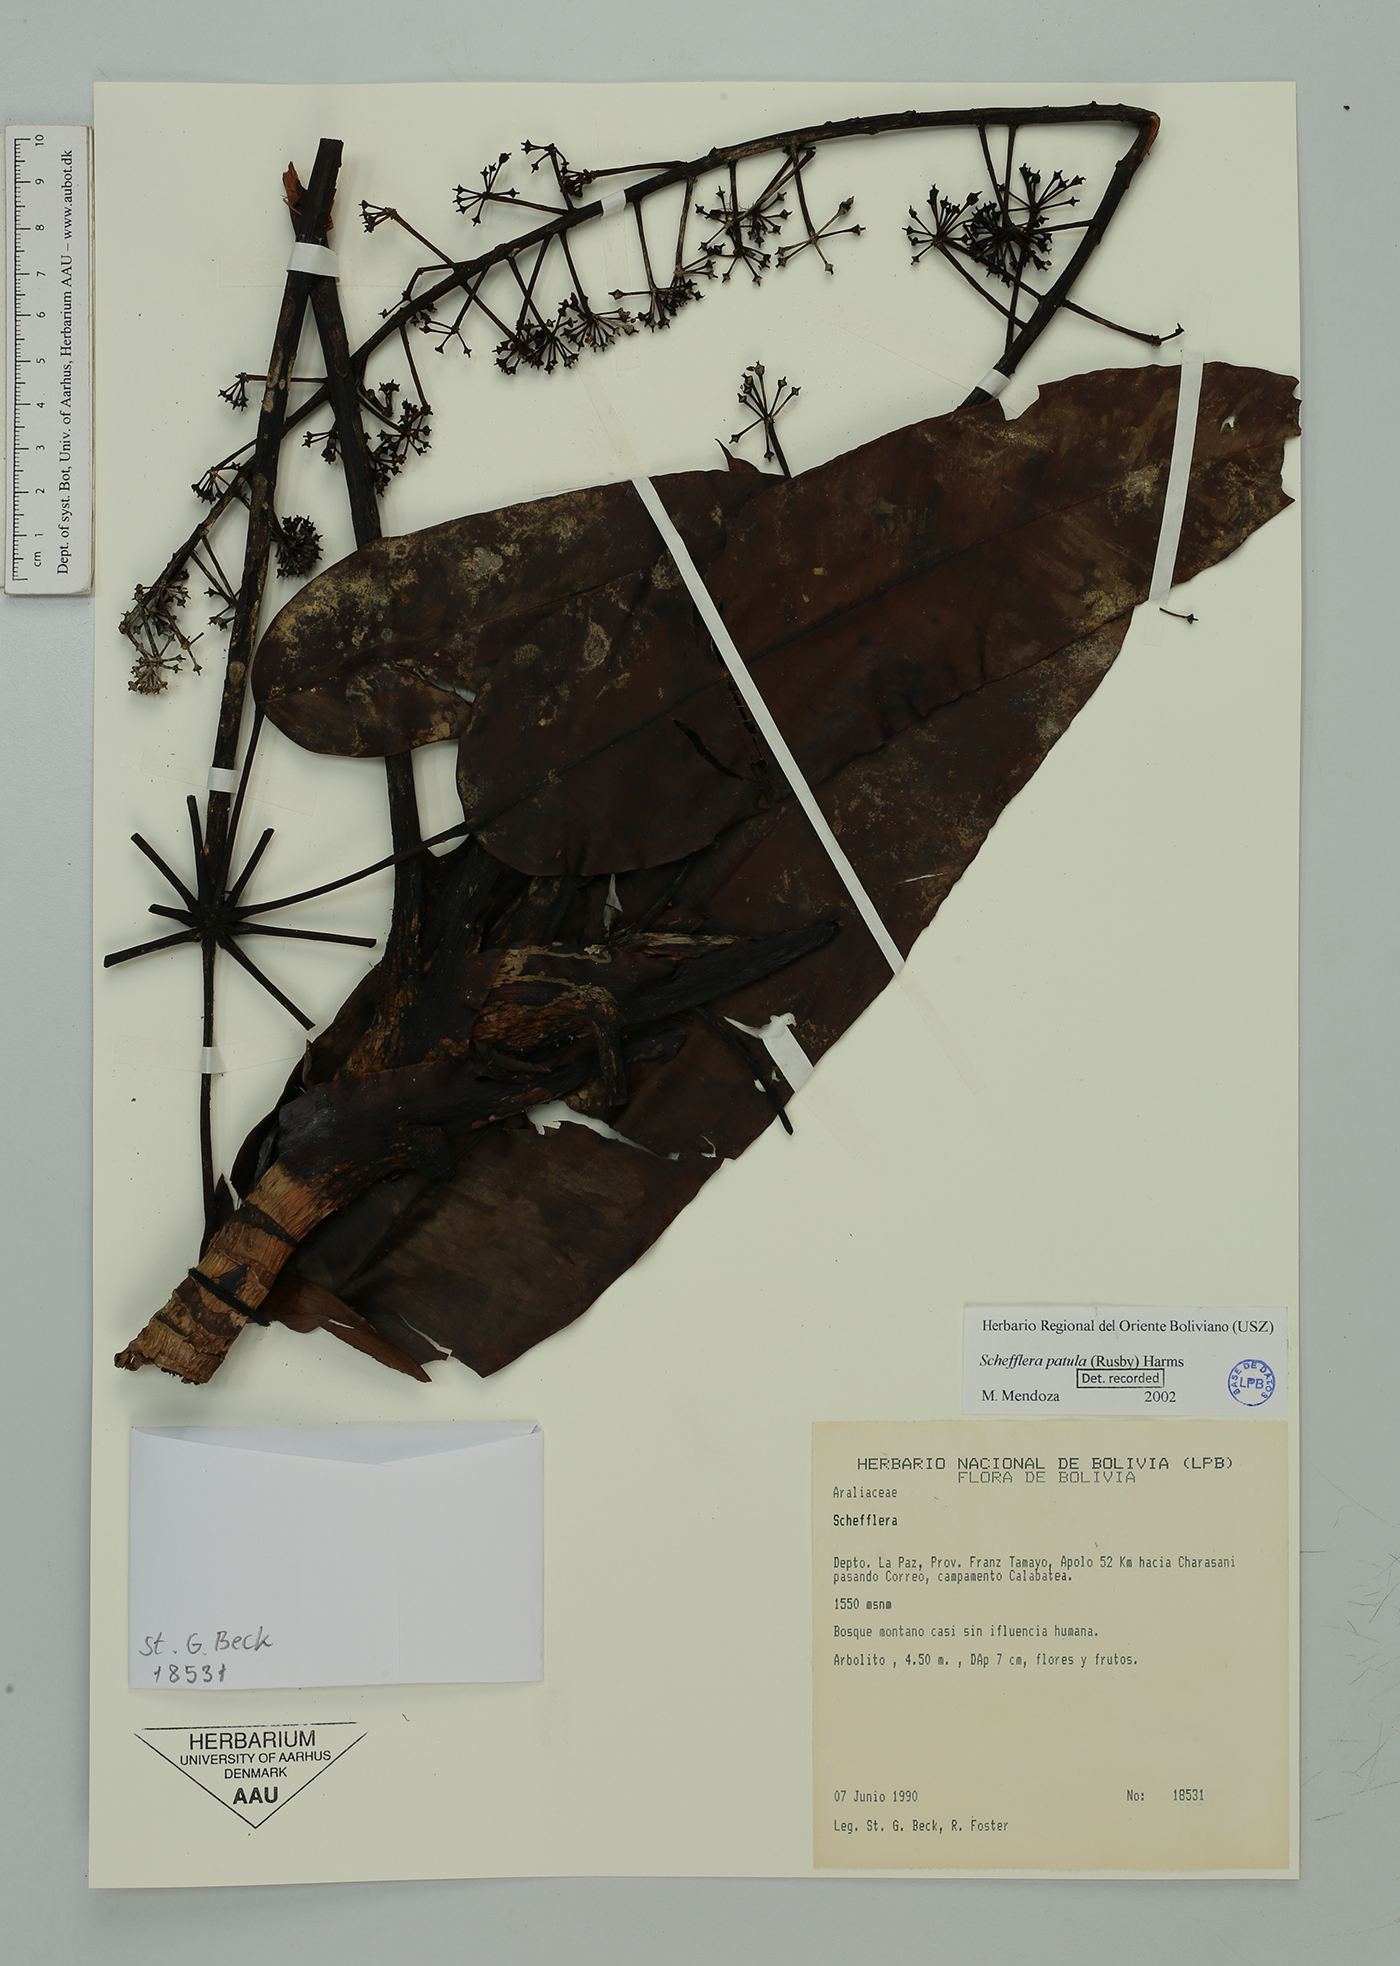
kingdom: Plantae
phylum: Tracheophyta
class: Magnoliopsida
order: Apiales
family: Araliaceae
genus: Sciodaphyllum
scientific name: Sciodaphyllum patulum
